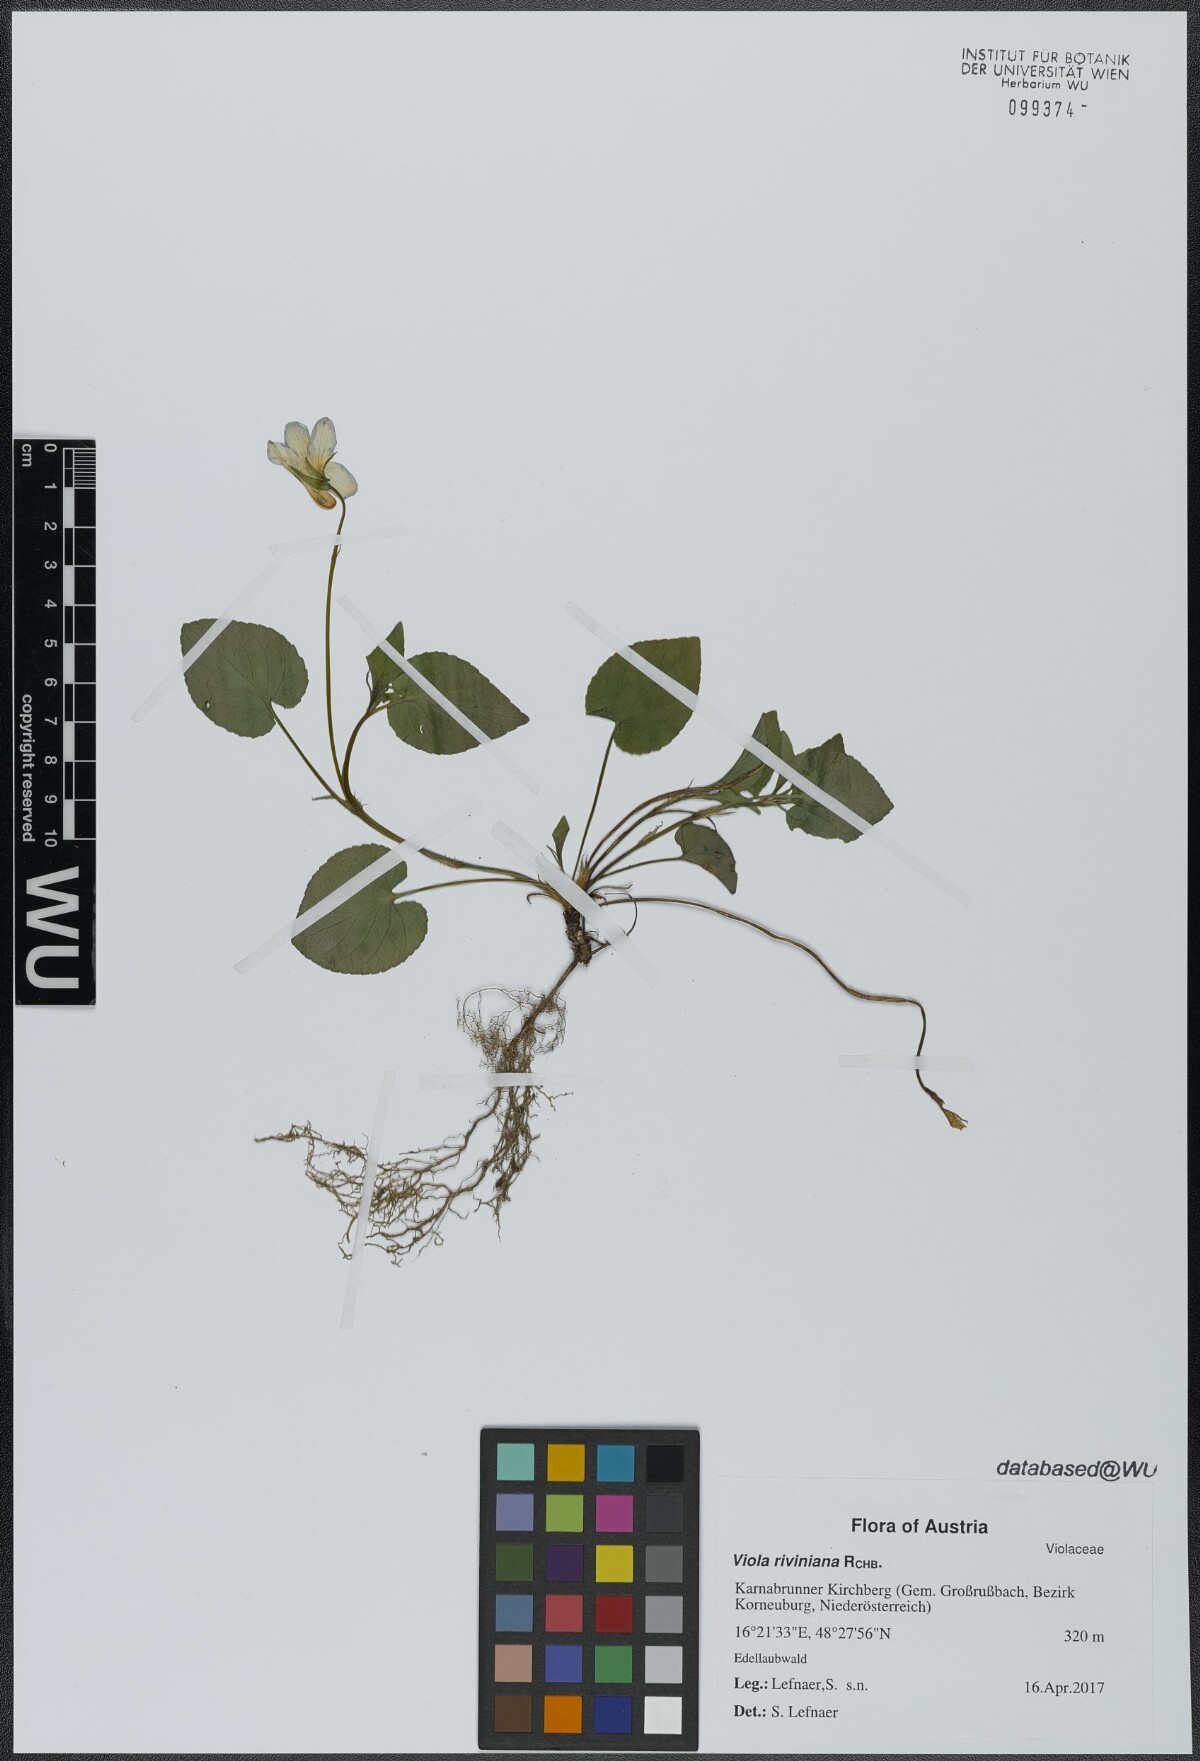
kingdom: Plantae
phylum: Tracheophyta
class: Magnoliopsida
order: Malpighiales
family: Violaceae
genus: Viola
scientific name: Viola riviniana
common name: Common dog-violet
